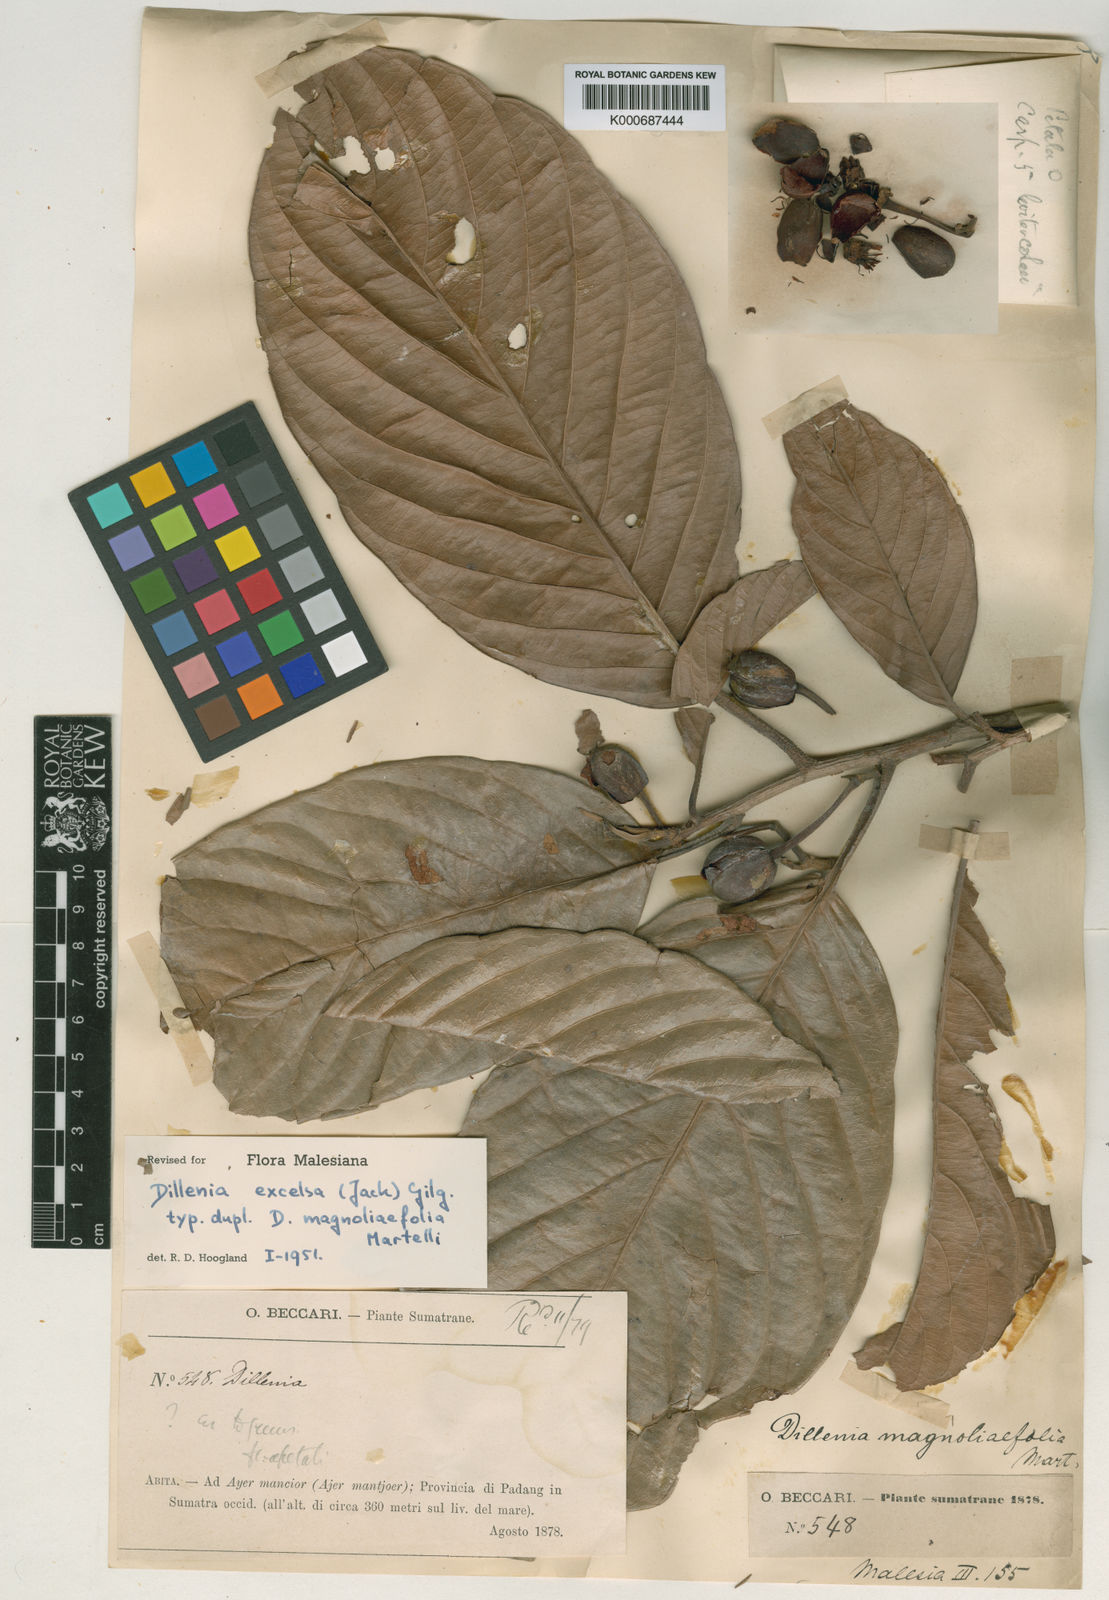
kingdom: Plantae
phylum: Tracheophyta
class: Magnoliopsida
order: Dilleniales
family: Dilleniaceae
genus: Dillenia
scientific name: Dillenia
